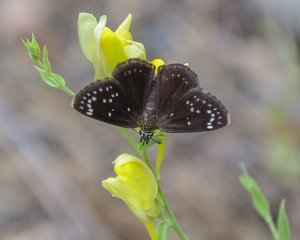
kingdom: Animalia
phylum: Arthropoda
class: Insecta
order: Lepidoptera
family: Hesperiidae
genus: Pholisora
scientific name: Pholisora catullus
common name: Common Sootywing
